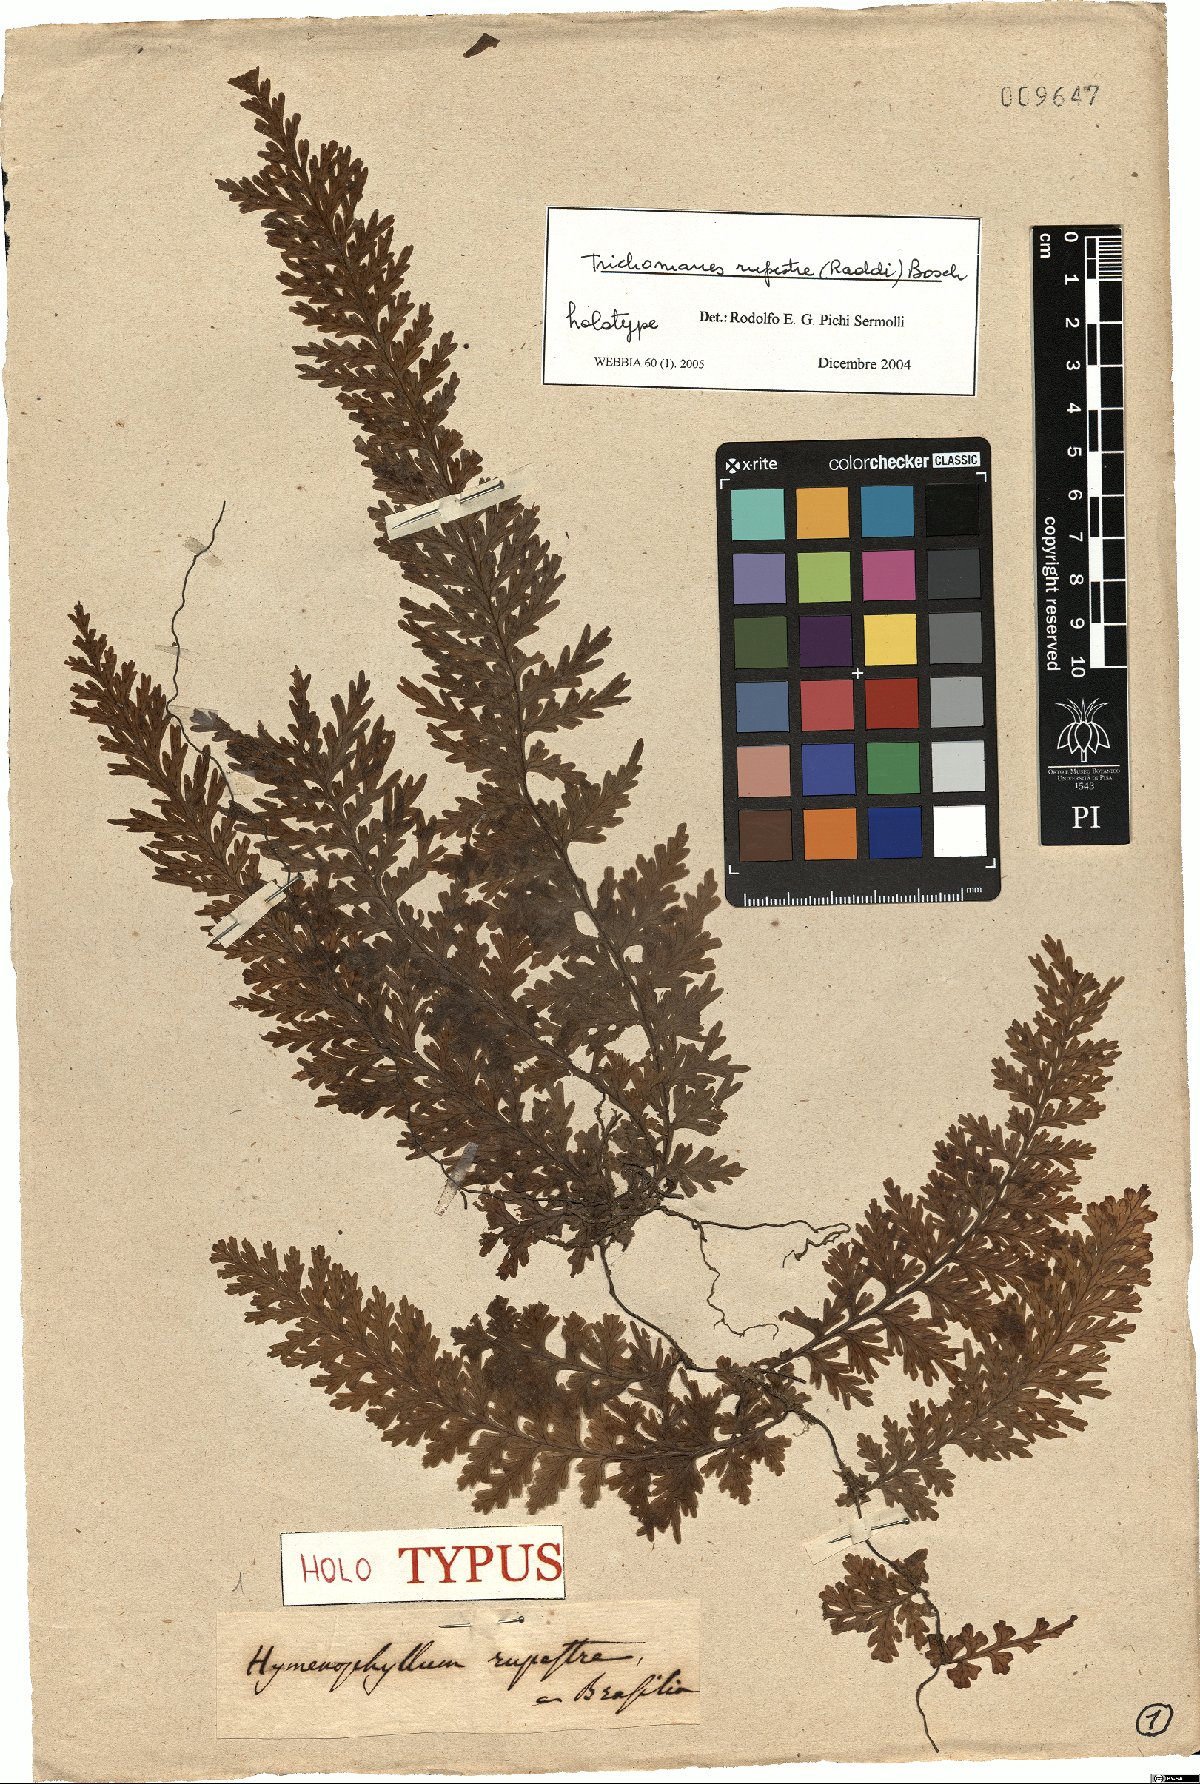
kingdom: Plantae
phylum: Tracheophyta
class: Polypodiopsida
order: Hymenophyllales
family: Hymenophyllaceae
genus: Vandenboschia
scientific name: Vandenboschia rupestris
